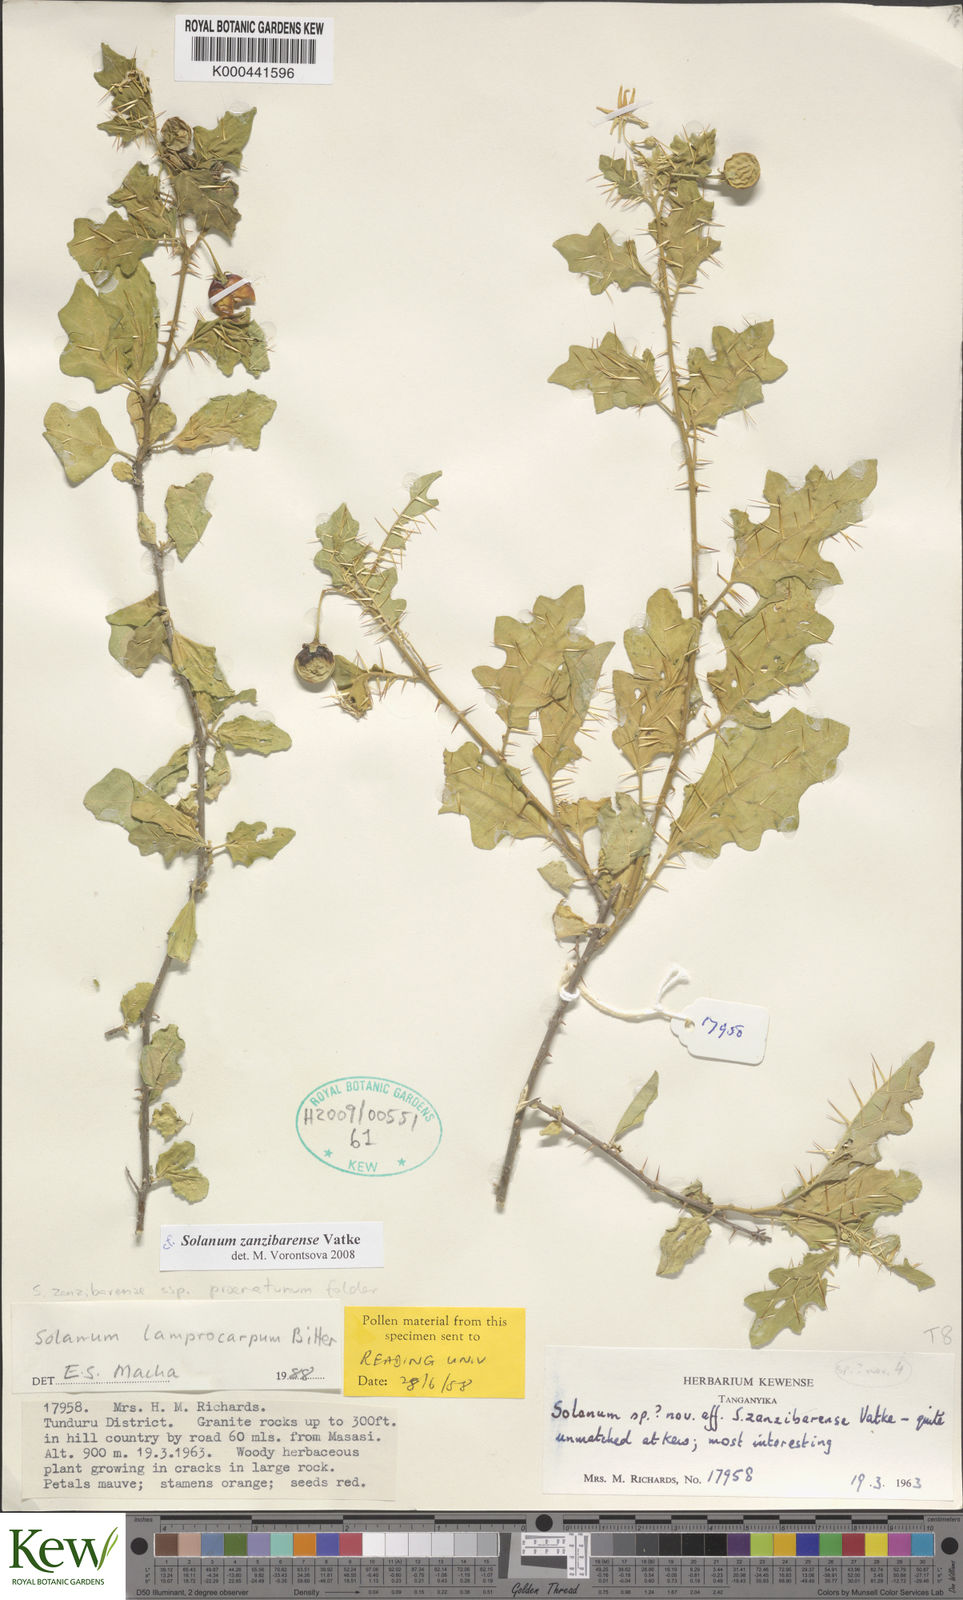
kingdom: Plantae
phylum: Tracheophyta
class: Magnoliopsida
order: Solanales
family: Solanaceae
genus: Solanum
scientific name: Solanum zanzibarense
